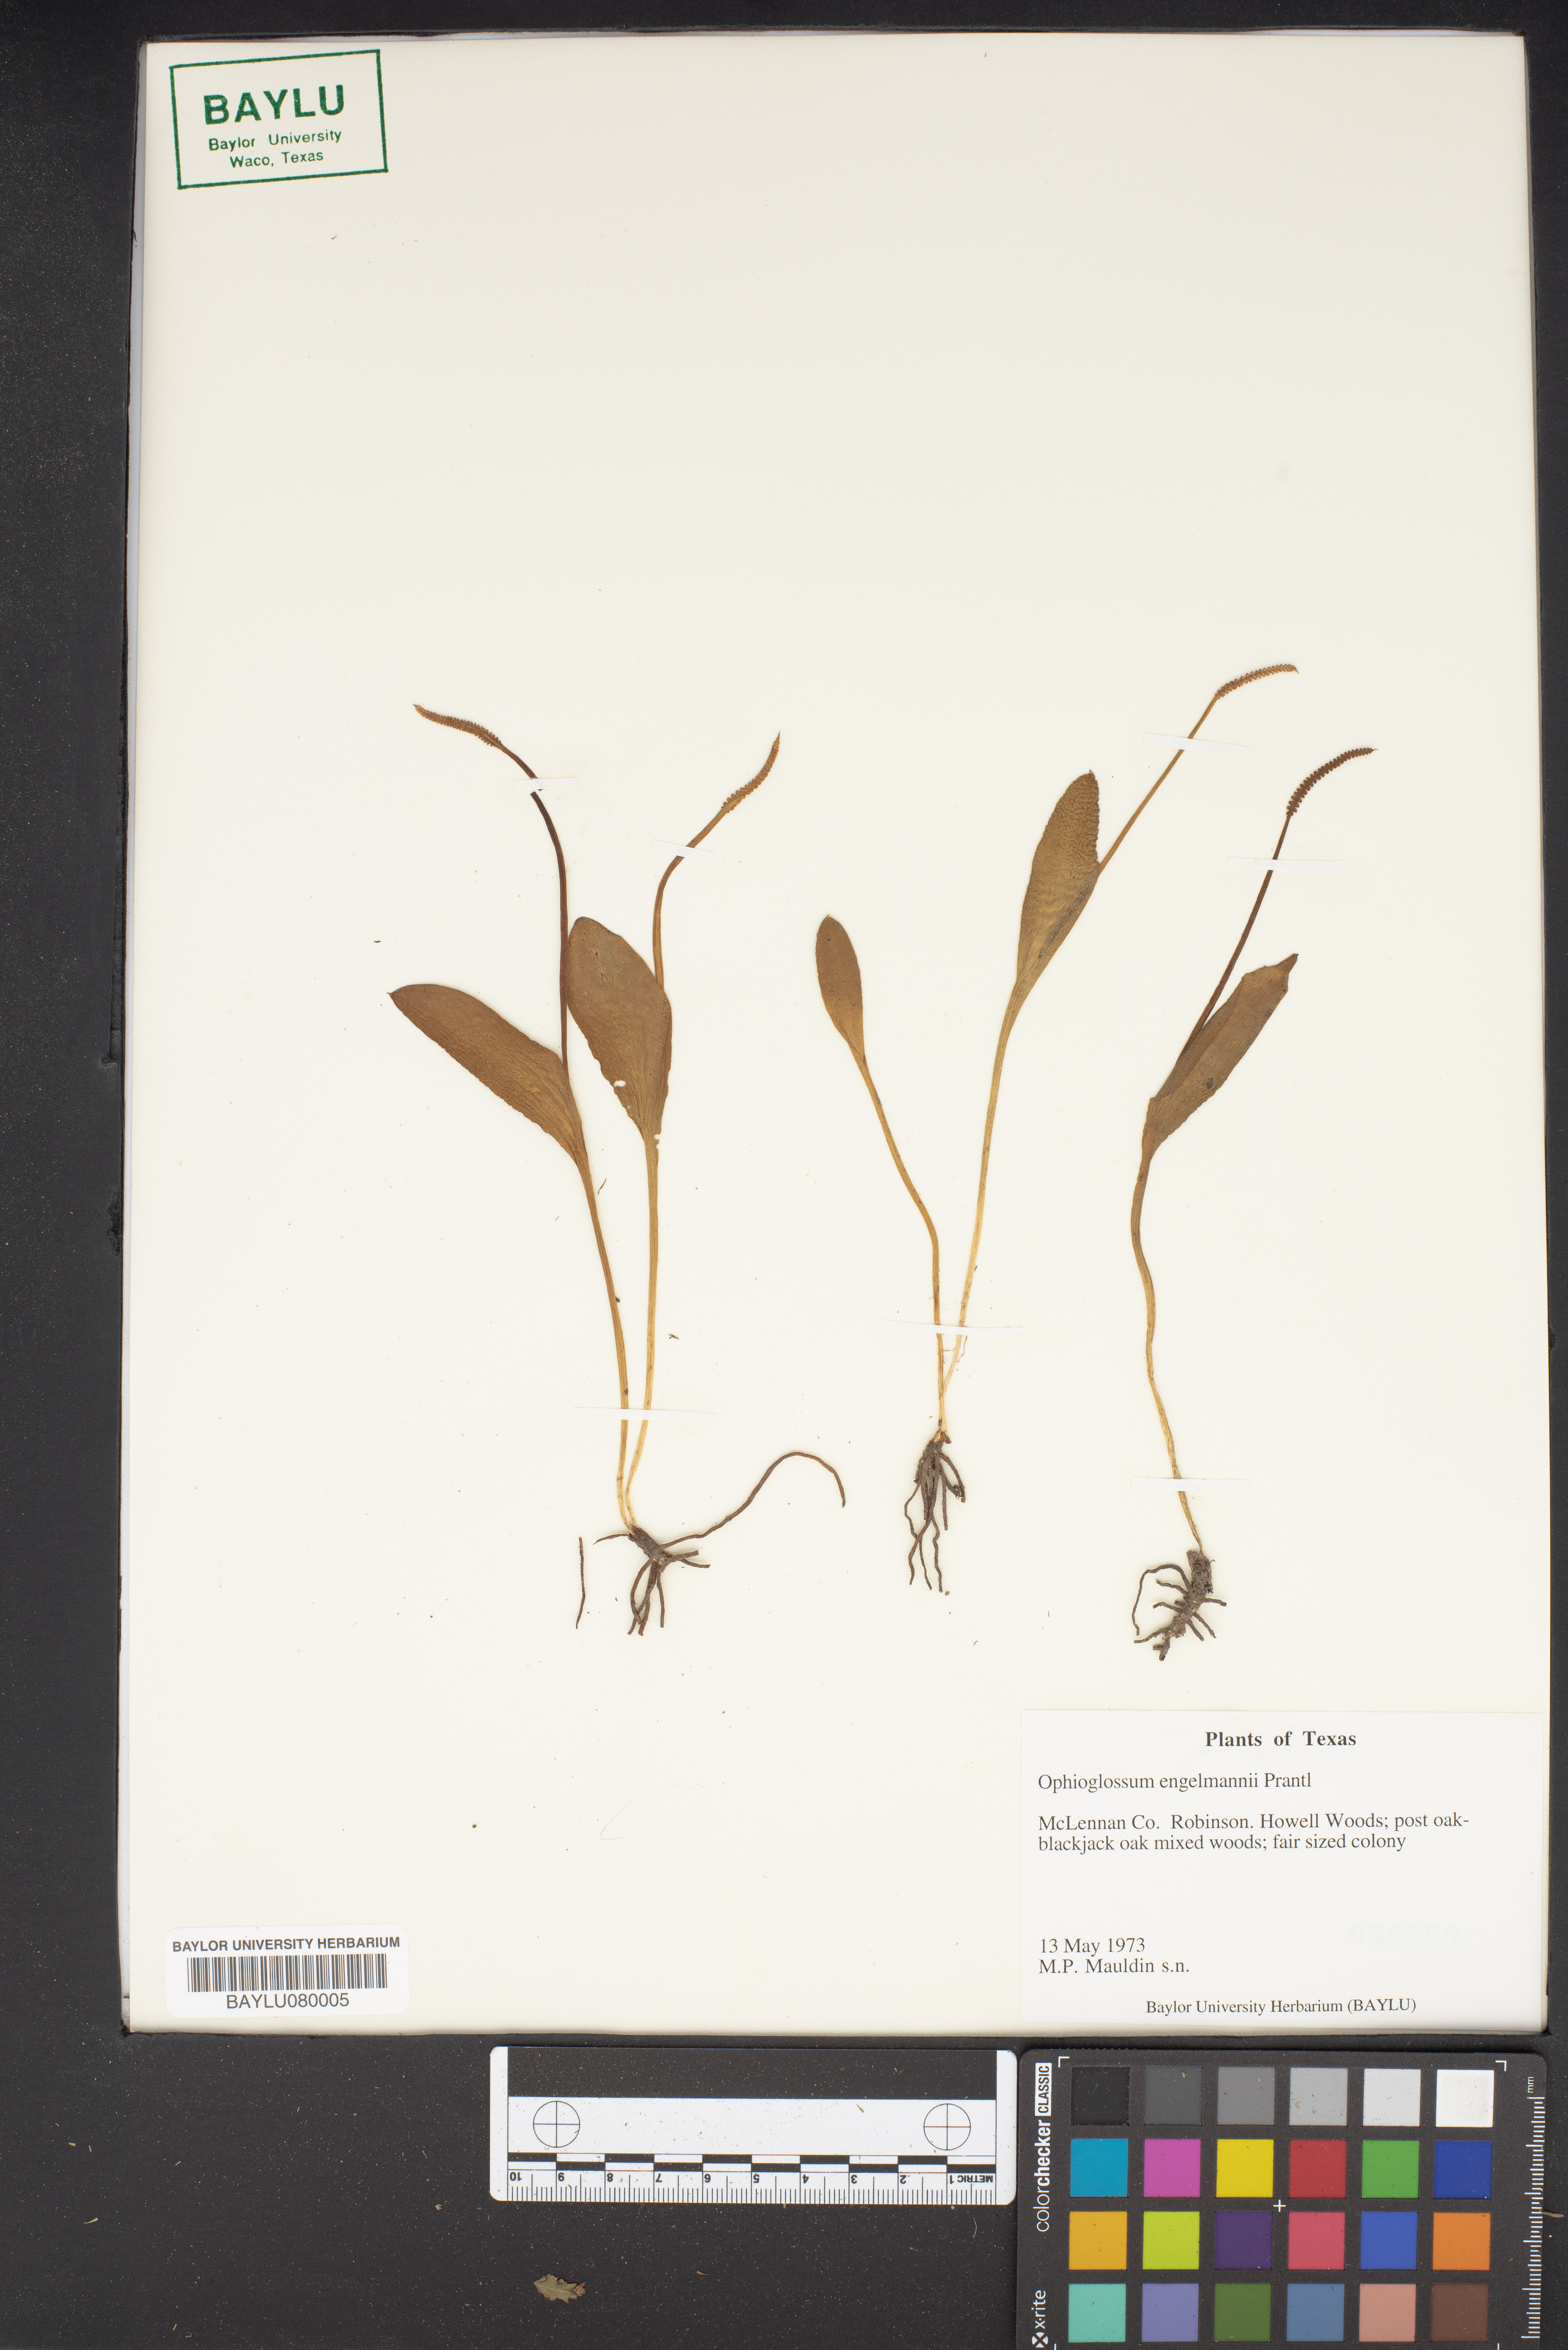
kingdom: Plantae
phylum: Tracheophyta
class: Polypodiopsida
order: Ophioglossales
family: Ophioglossaceae
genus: Ophioglossum
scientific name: Ophioglossum engelmannii
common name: Limestone adder's-tongue
